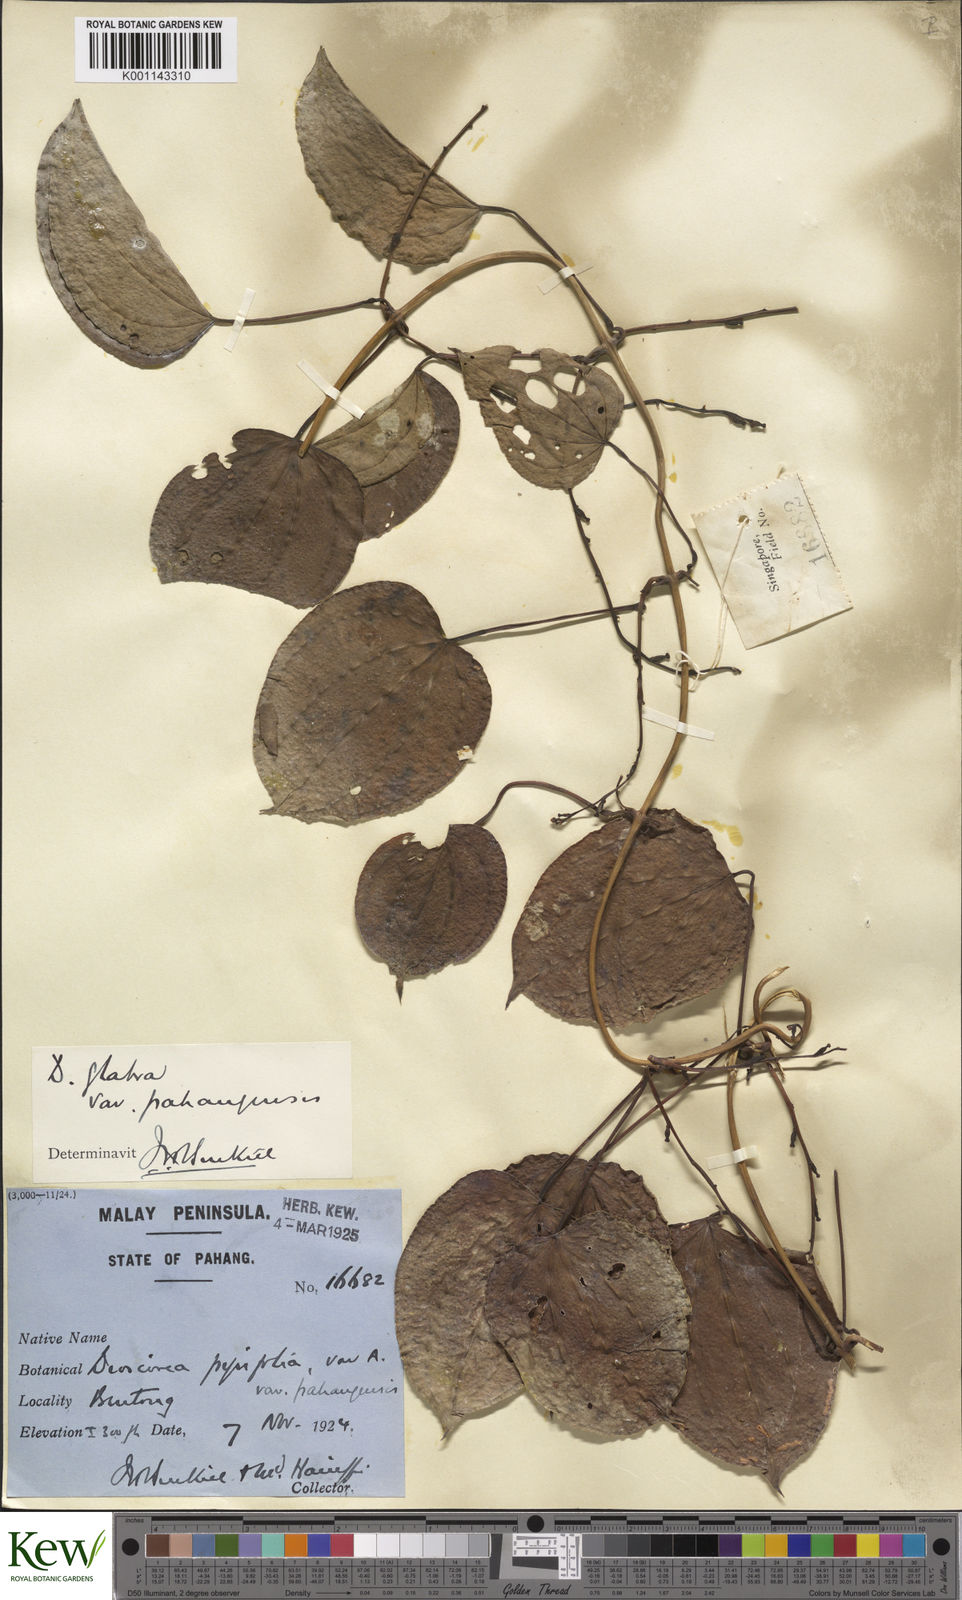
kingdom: Plantae
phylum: Tracheophyta
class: Liliopsida
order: Dioscoreales
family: Dioscoreaceae
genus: Dioscorea
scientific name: Dioscorea glabra
